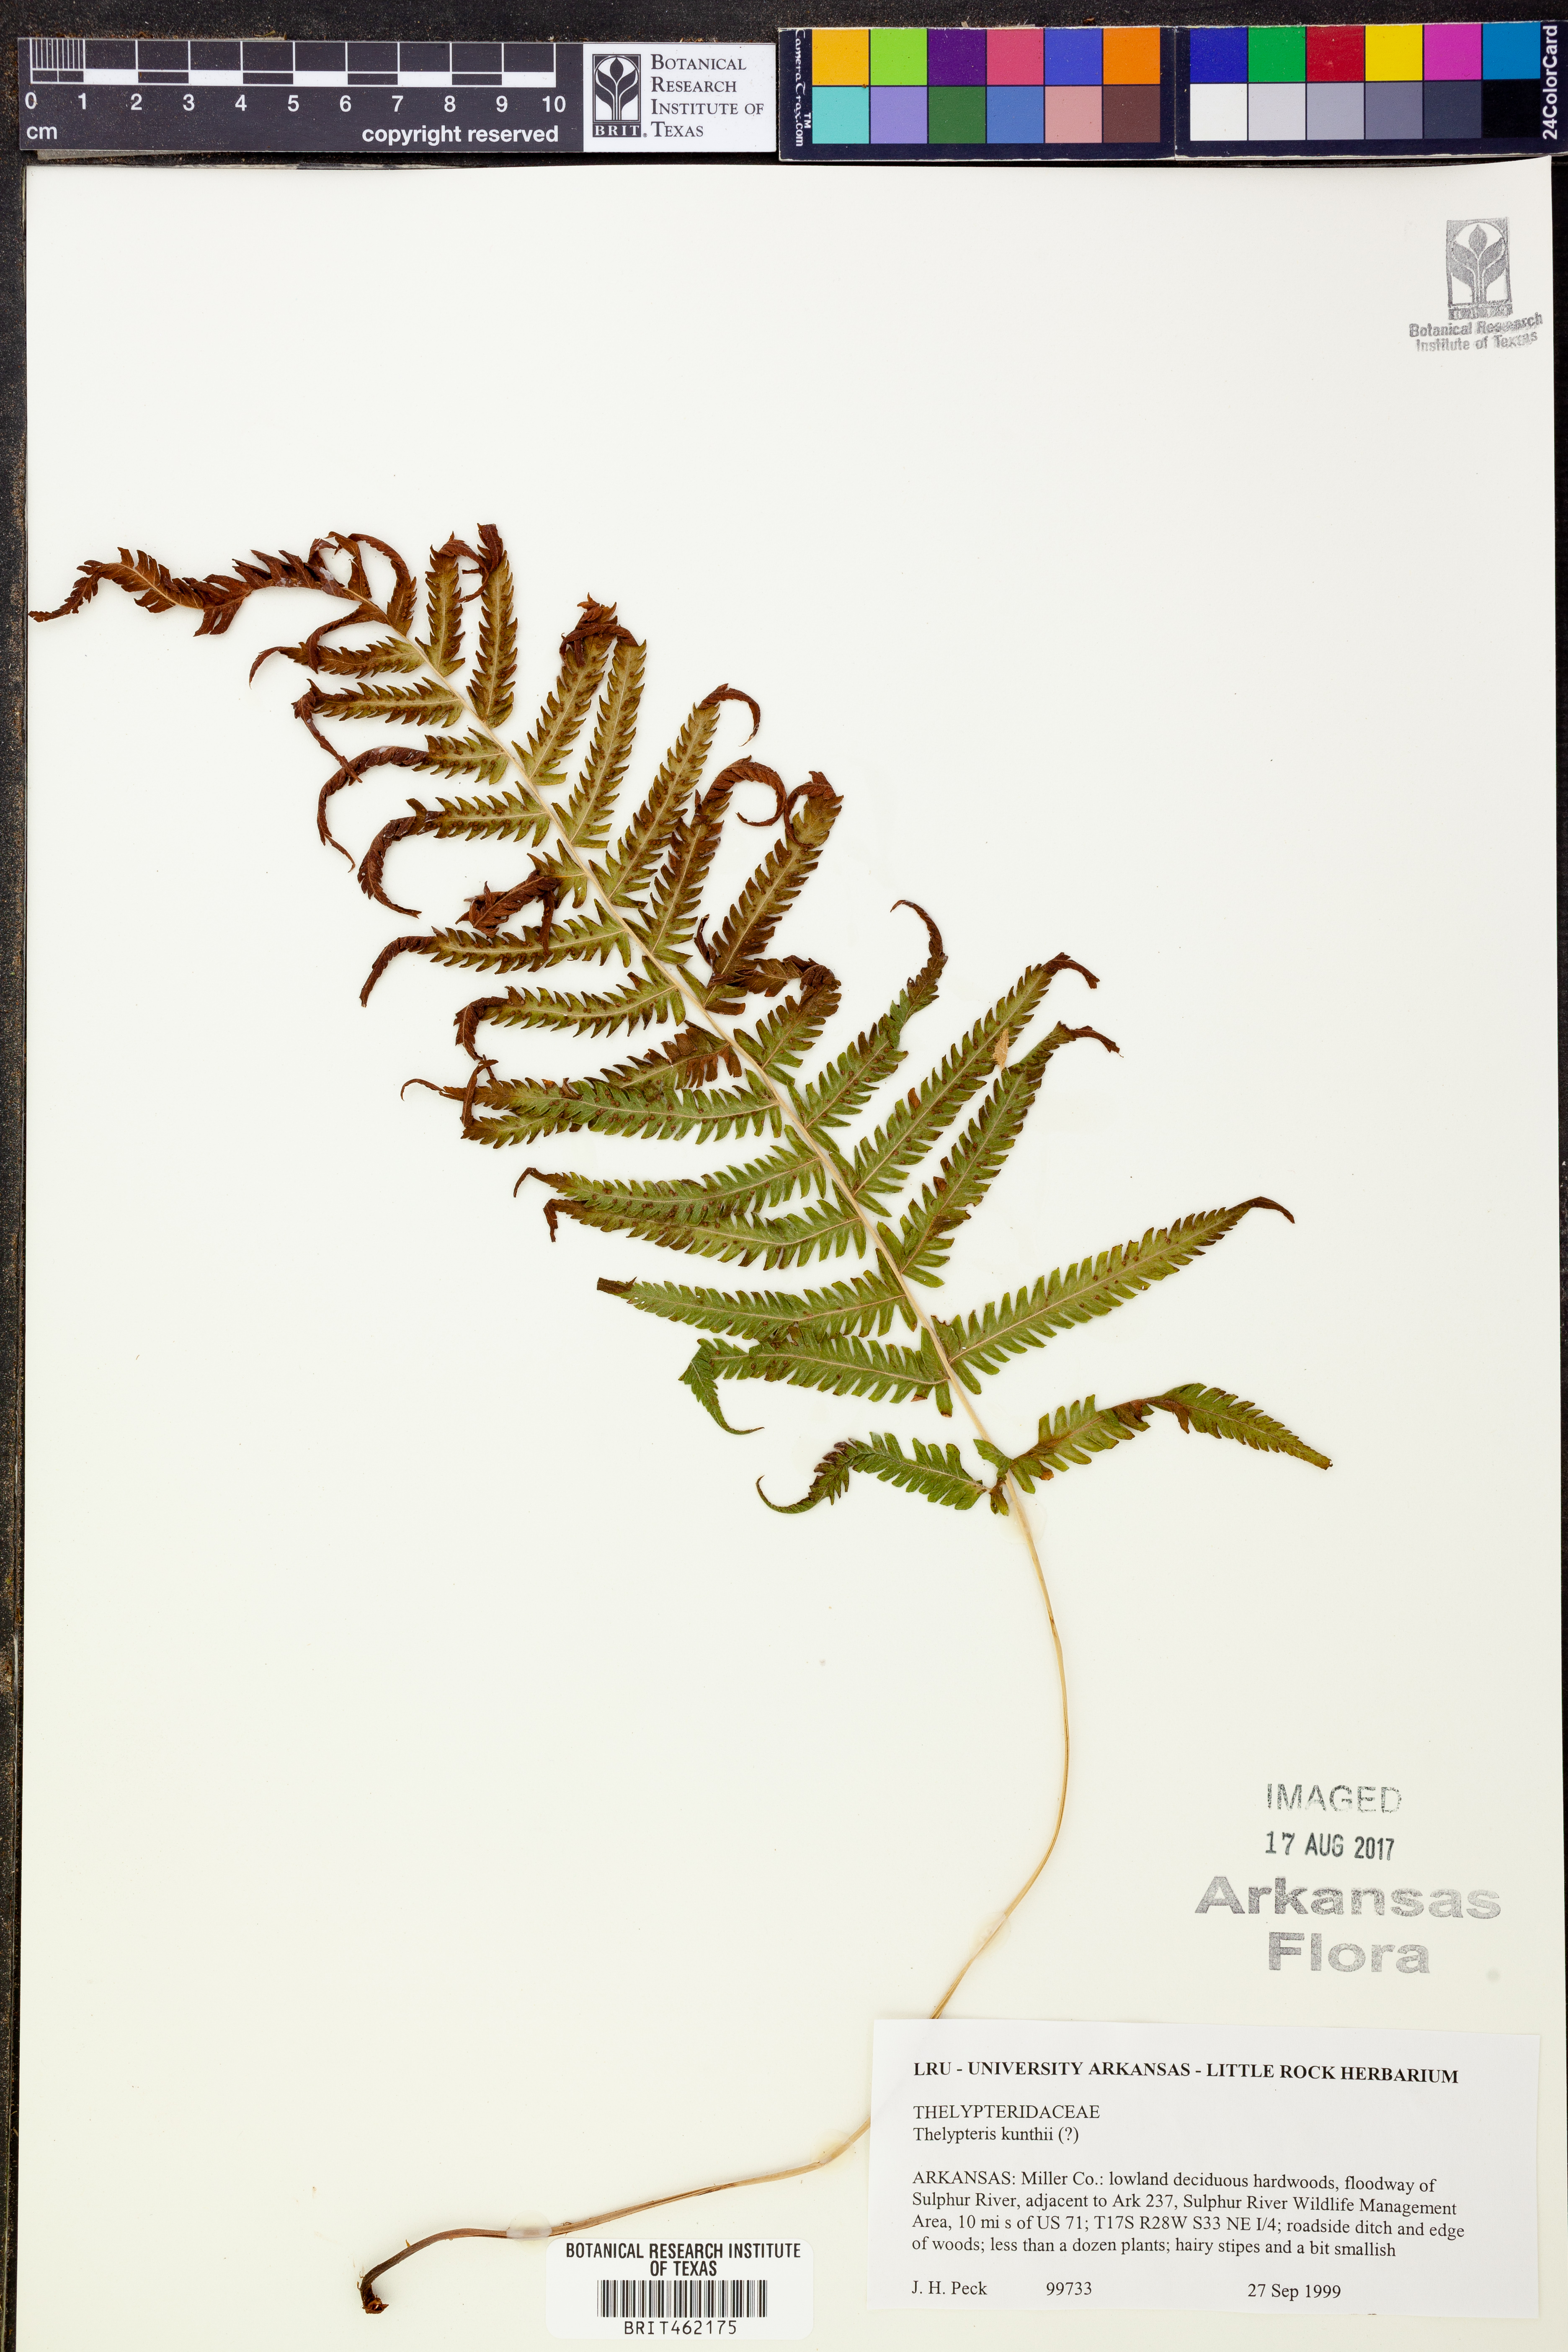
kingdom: Plantae
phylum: Tracheophyta
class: Polypodiopsida
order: Polypodiales
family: Thelypteridaceae
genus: Pelazoneuron
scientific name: Pelazoneuron kunthii
